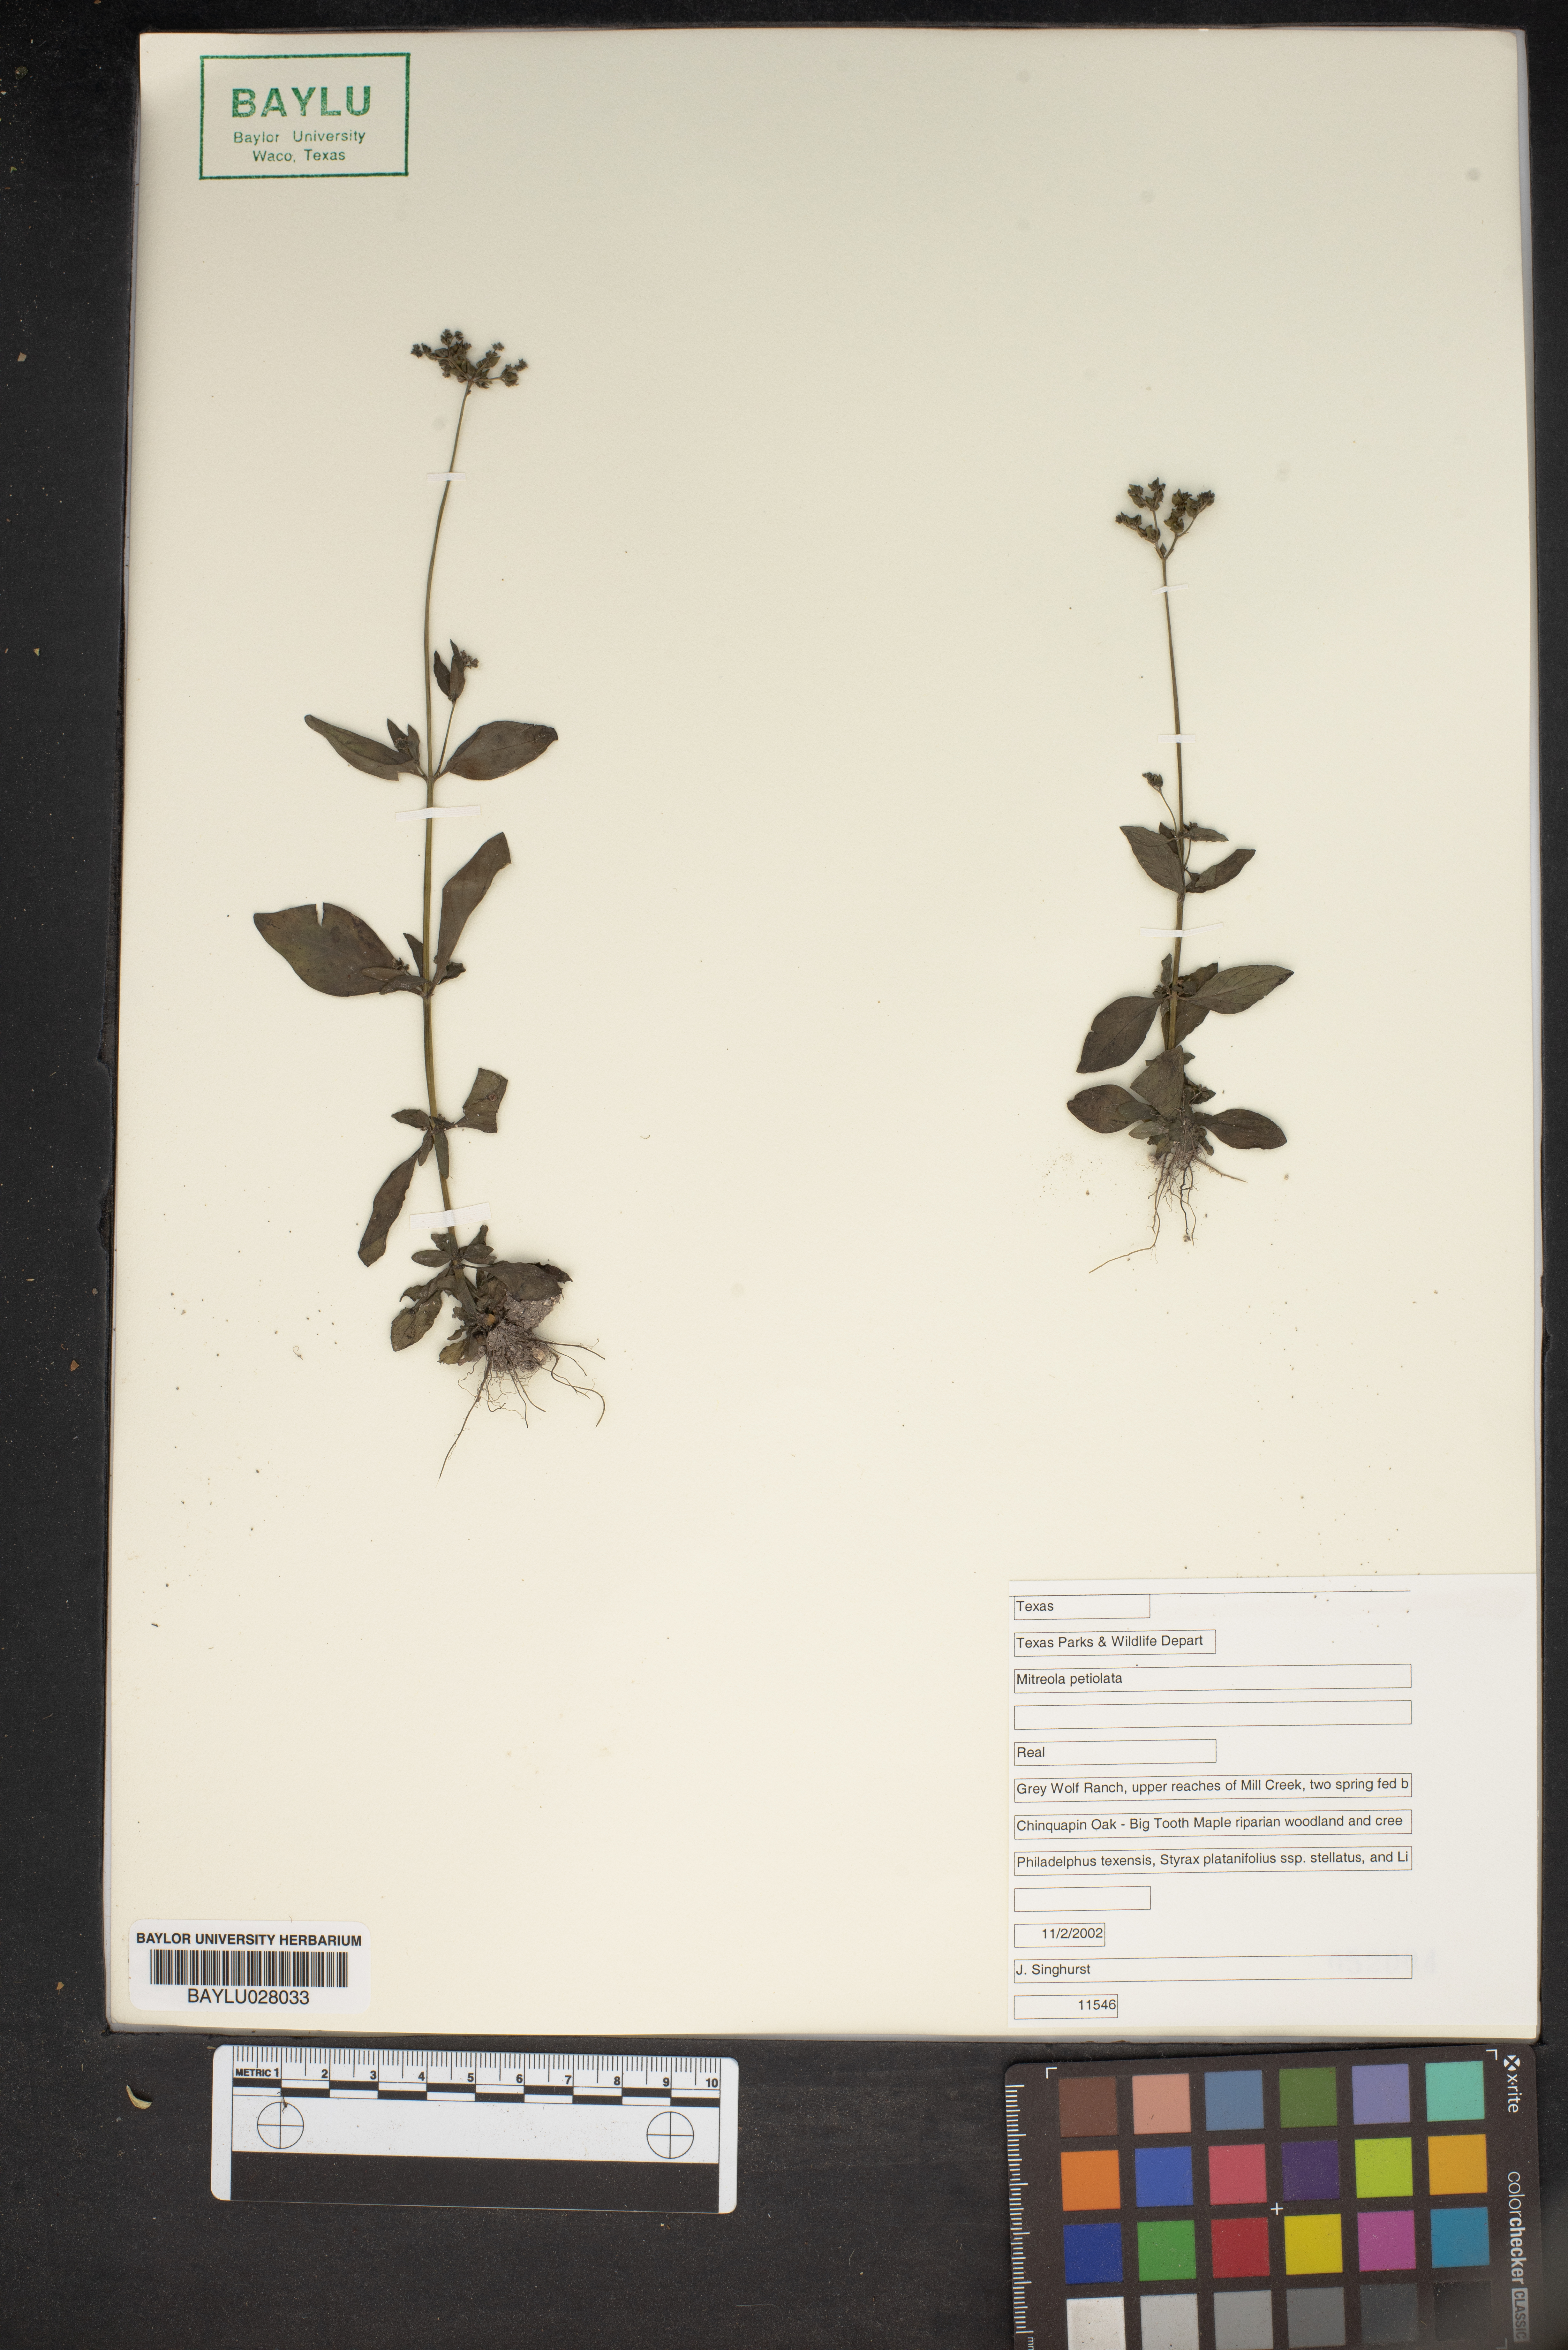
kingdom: Plantae
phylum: Tracheophyta
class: Magnoliopsida
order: Gentianales
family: Loganiaceae
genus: Mitreola
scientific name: Mitreola petiolata
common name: Lax hornpod
